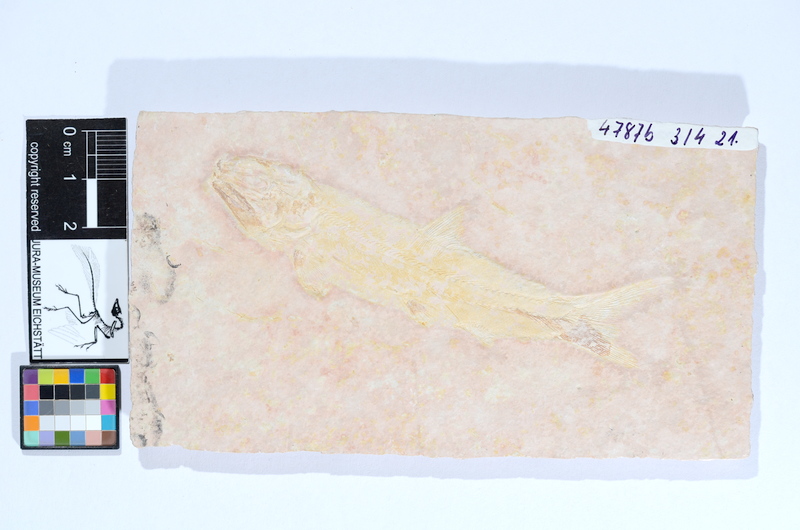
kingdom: Animalia
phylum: Chordata
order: Amiiformes
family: Liodesmidae
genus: Liodesmus
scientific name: Liodesmus
